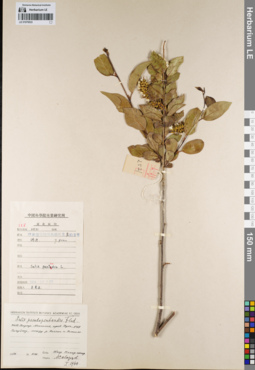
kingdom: Plantae
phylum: Tracheophyta
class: Magnoliopsida
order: Malpighiales
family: Salicaceae
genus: Salix
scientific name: Salix pseudopentandra
